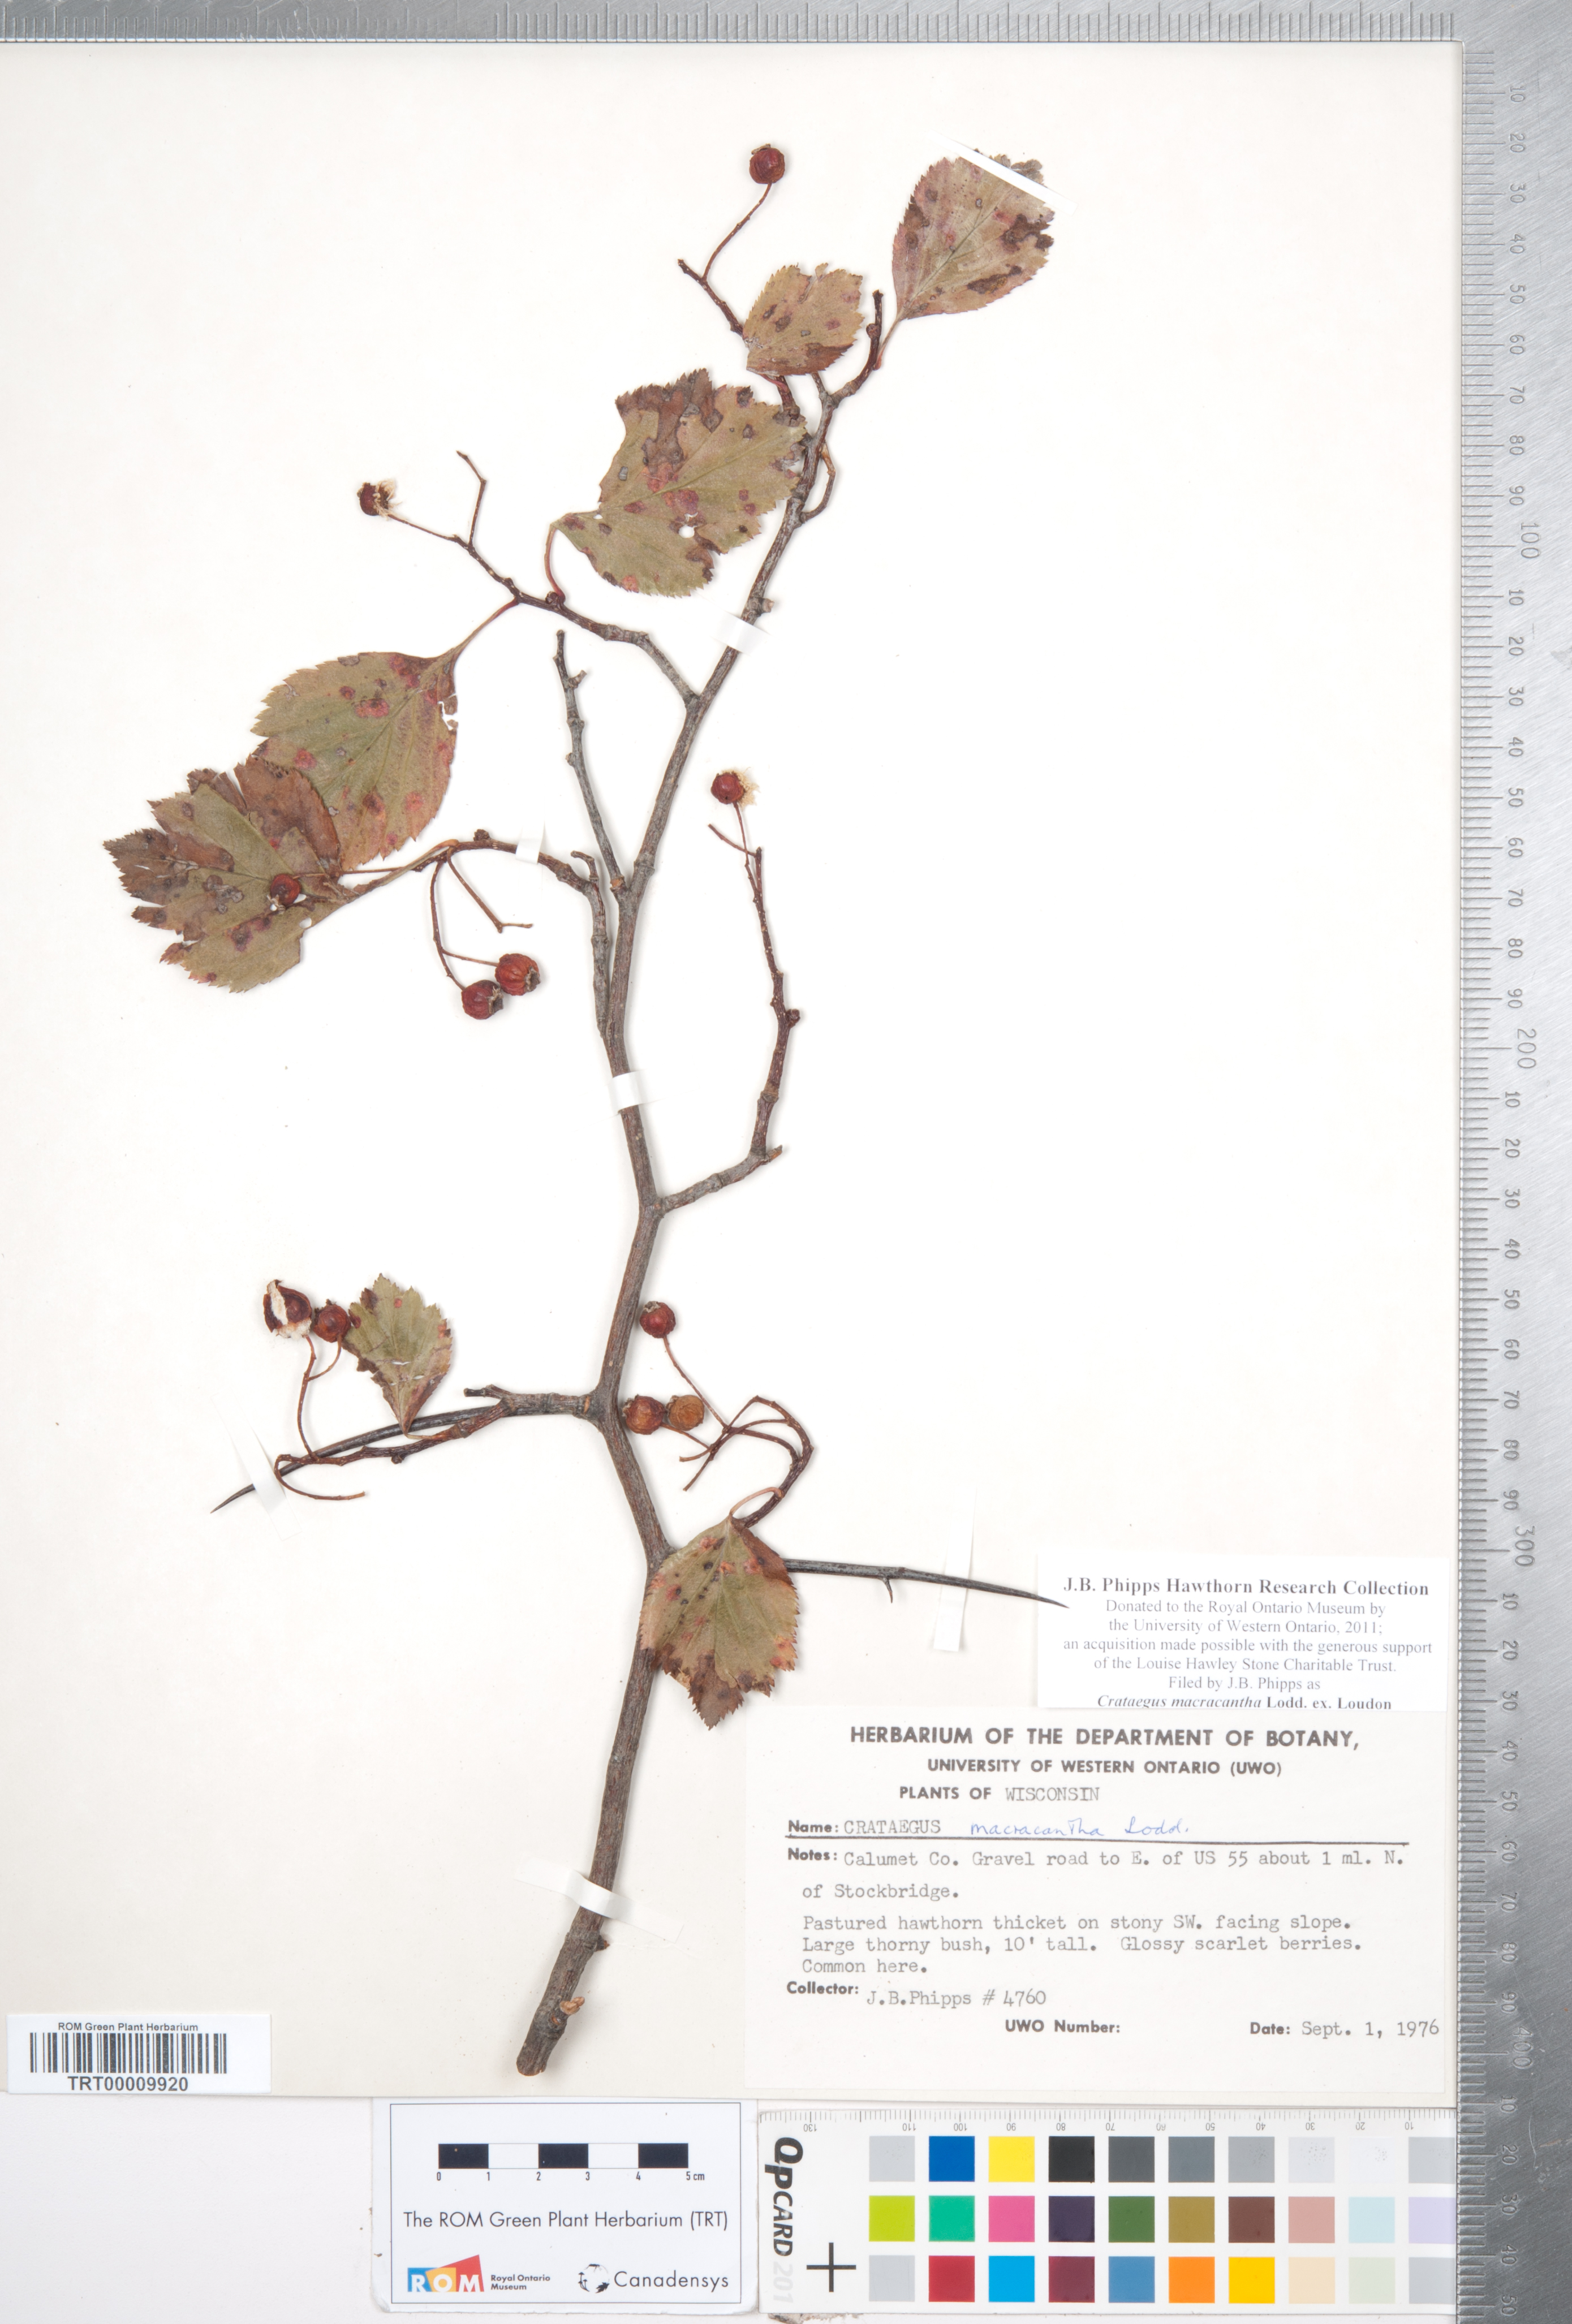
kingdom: Plantae
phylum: Tracheophyta
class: Magnoliopsida
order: Rosales
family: Rosaceae
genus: Crataegus
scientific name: Crataegus macracantha
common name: Large-thorn hawthorn
